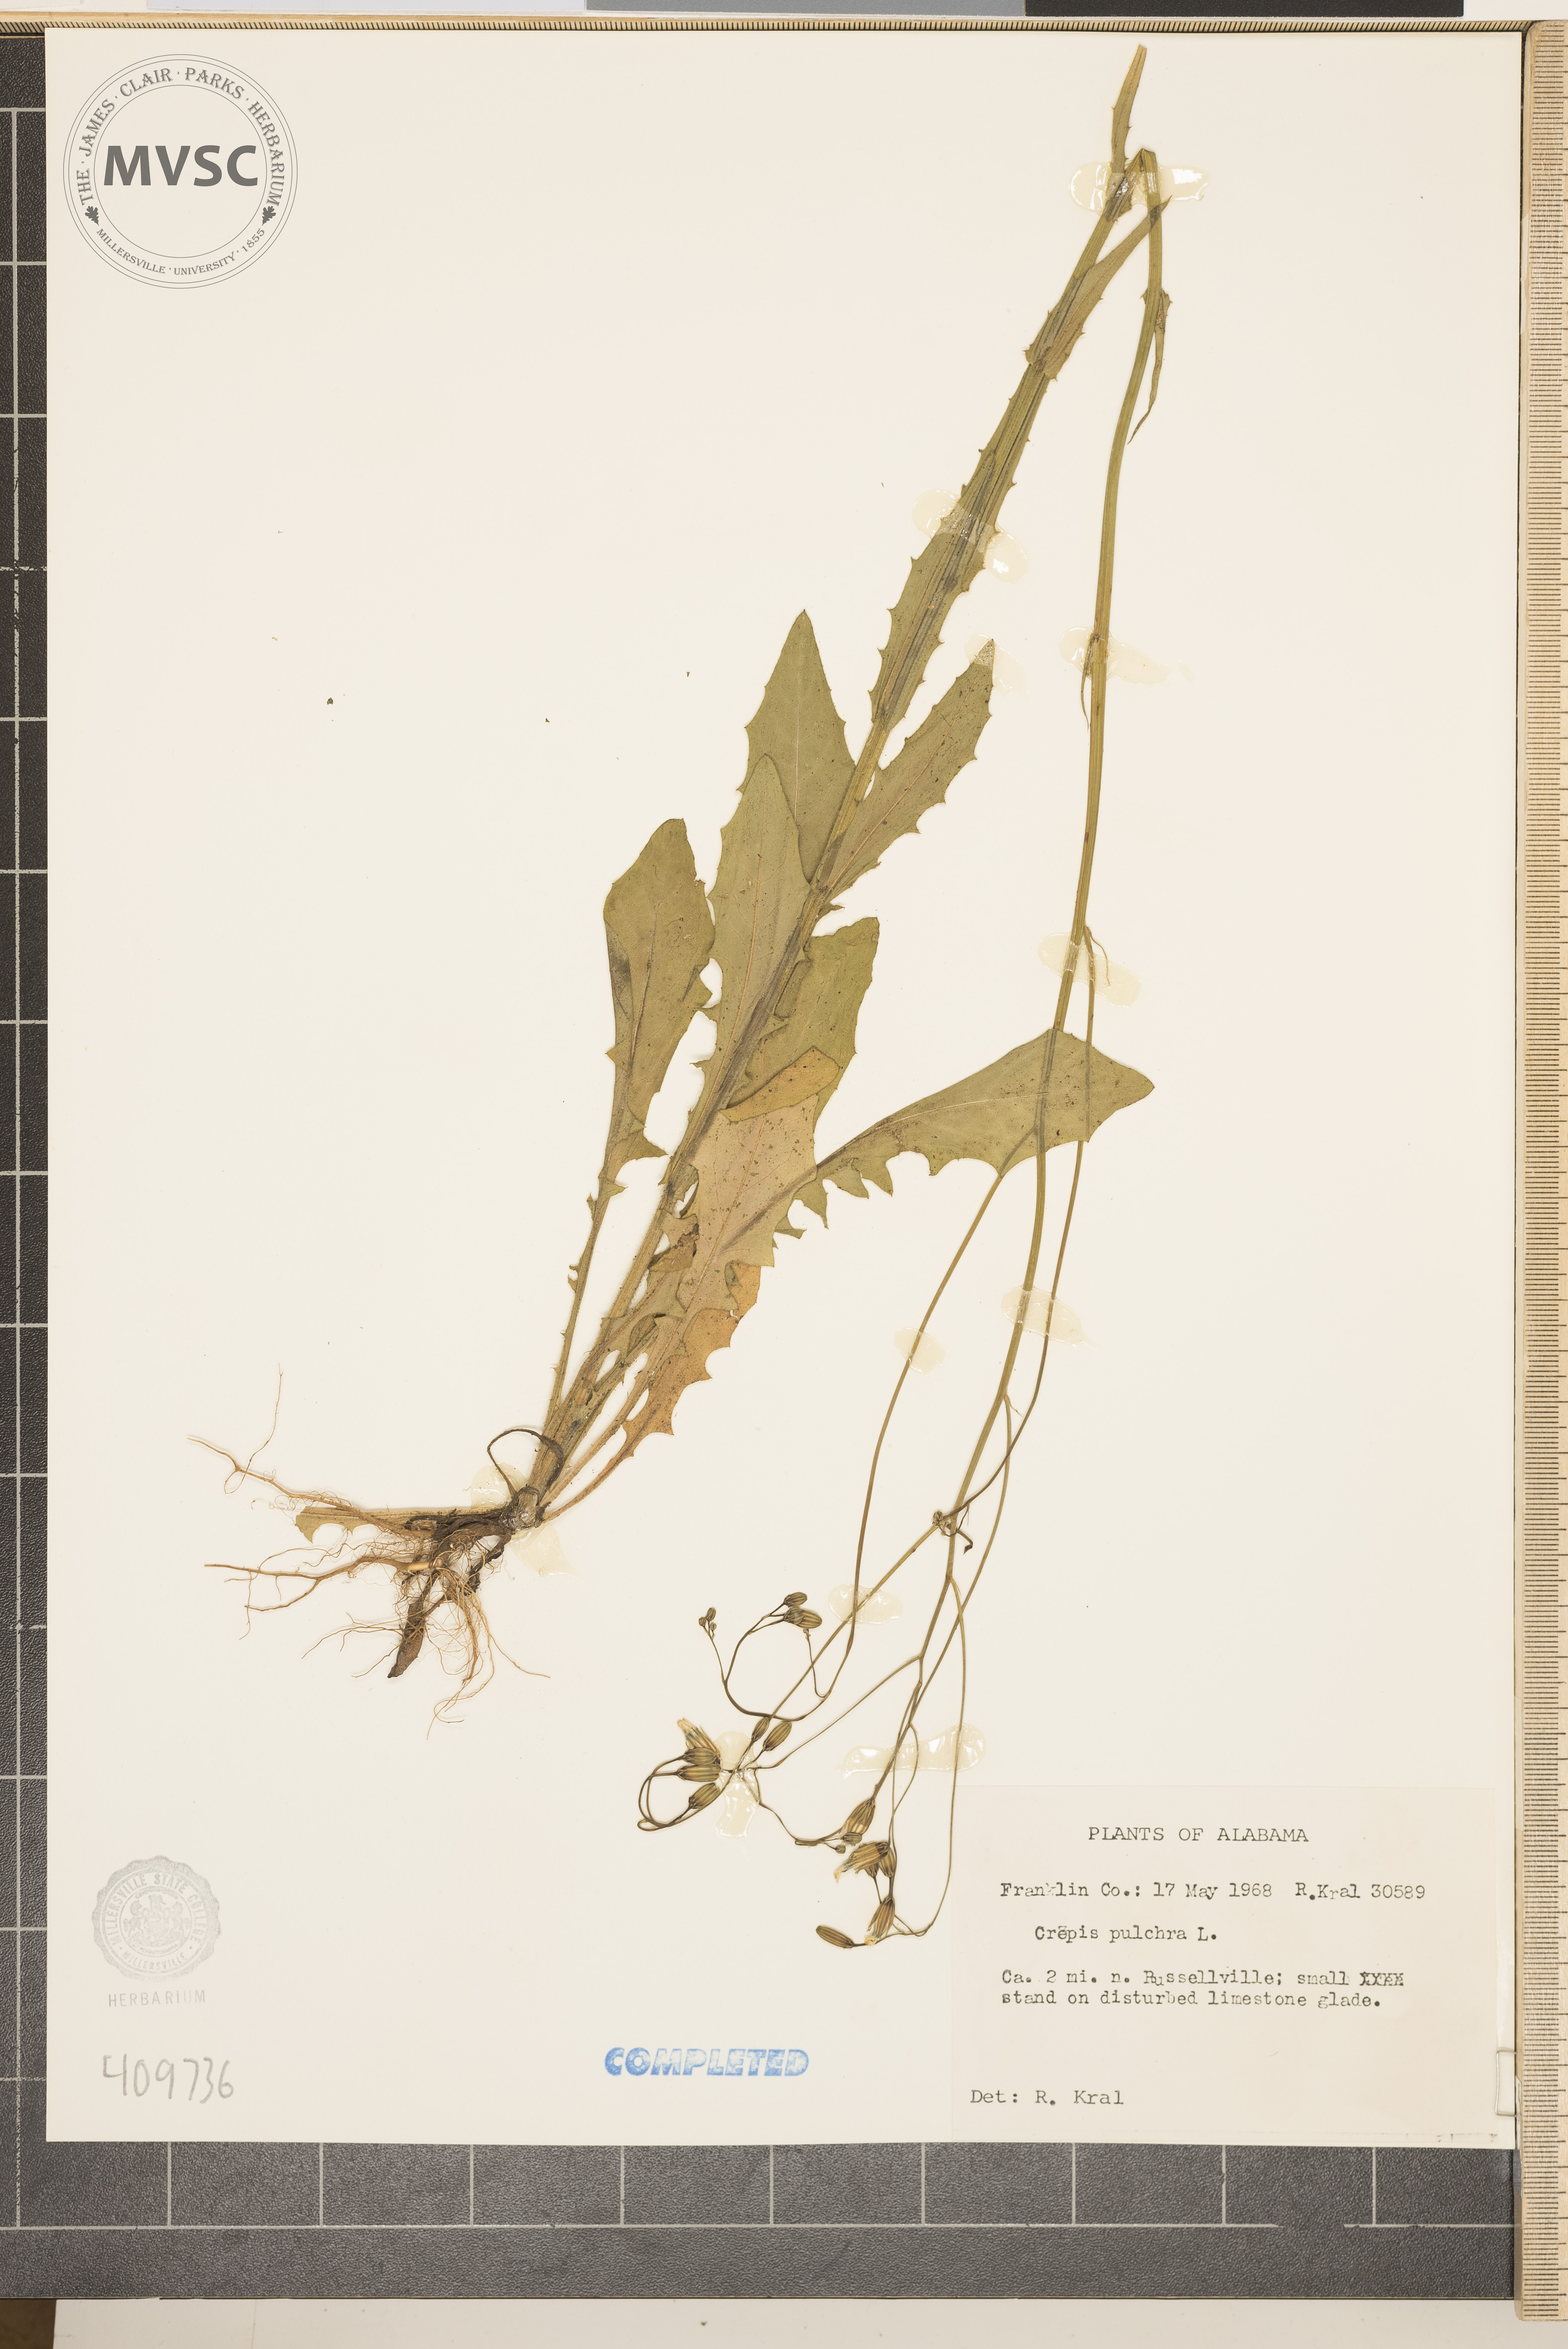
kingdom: Plantae
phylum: Tracheophyta
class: Magnoliopsida
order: Asterales
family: Asteraceae
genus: Crepis
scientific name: Crepis pulchra
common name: Hawk's-beard
